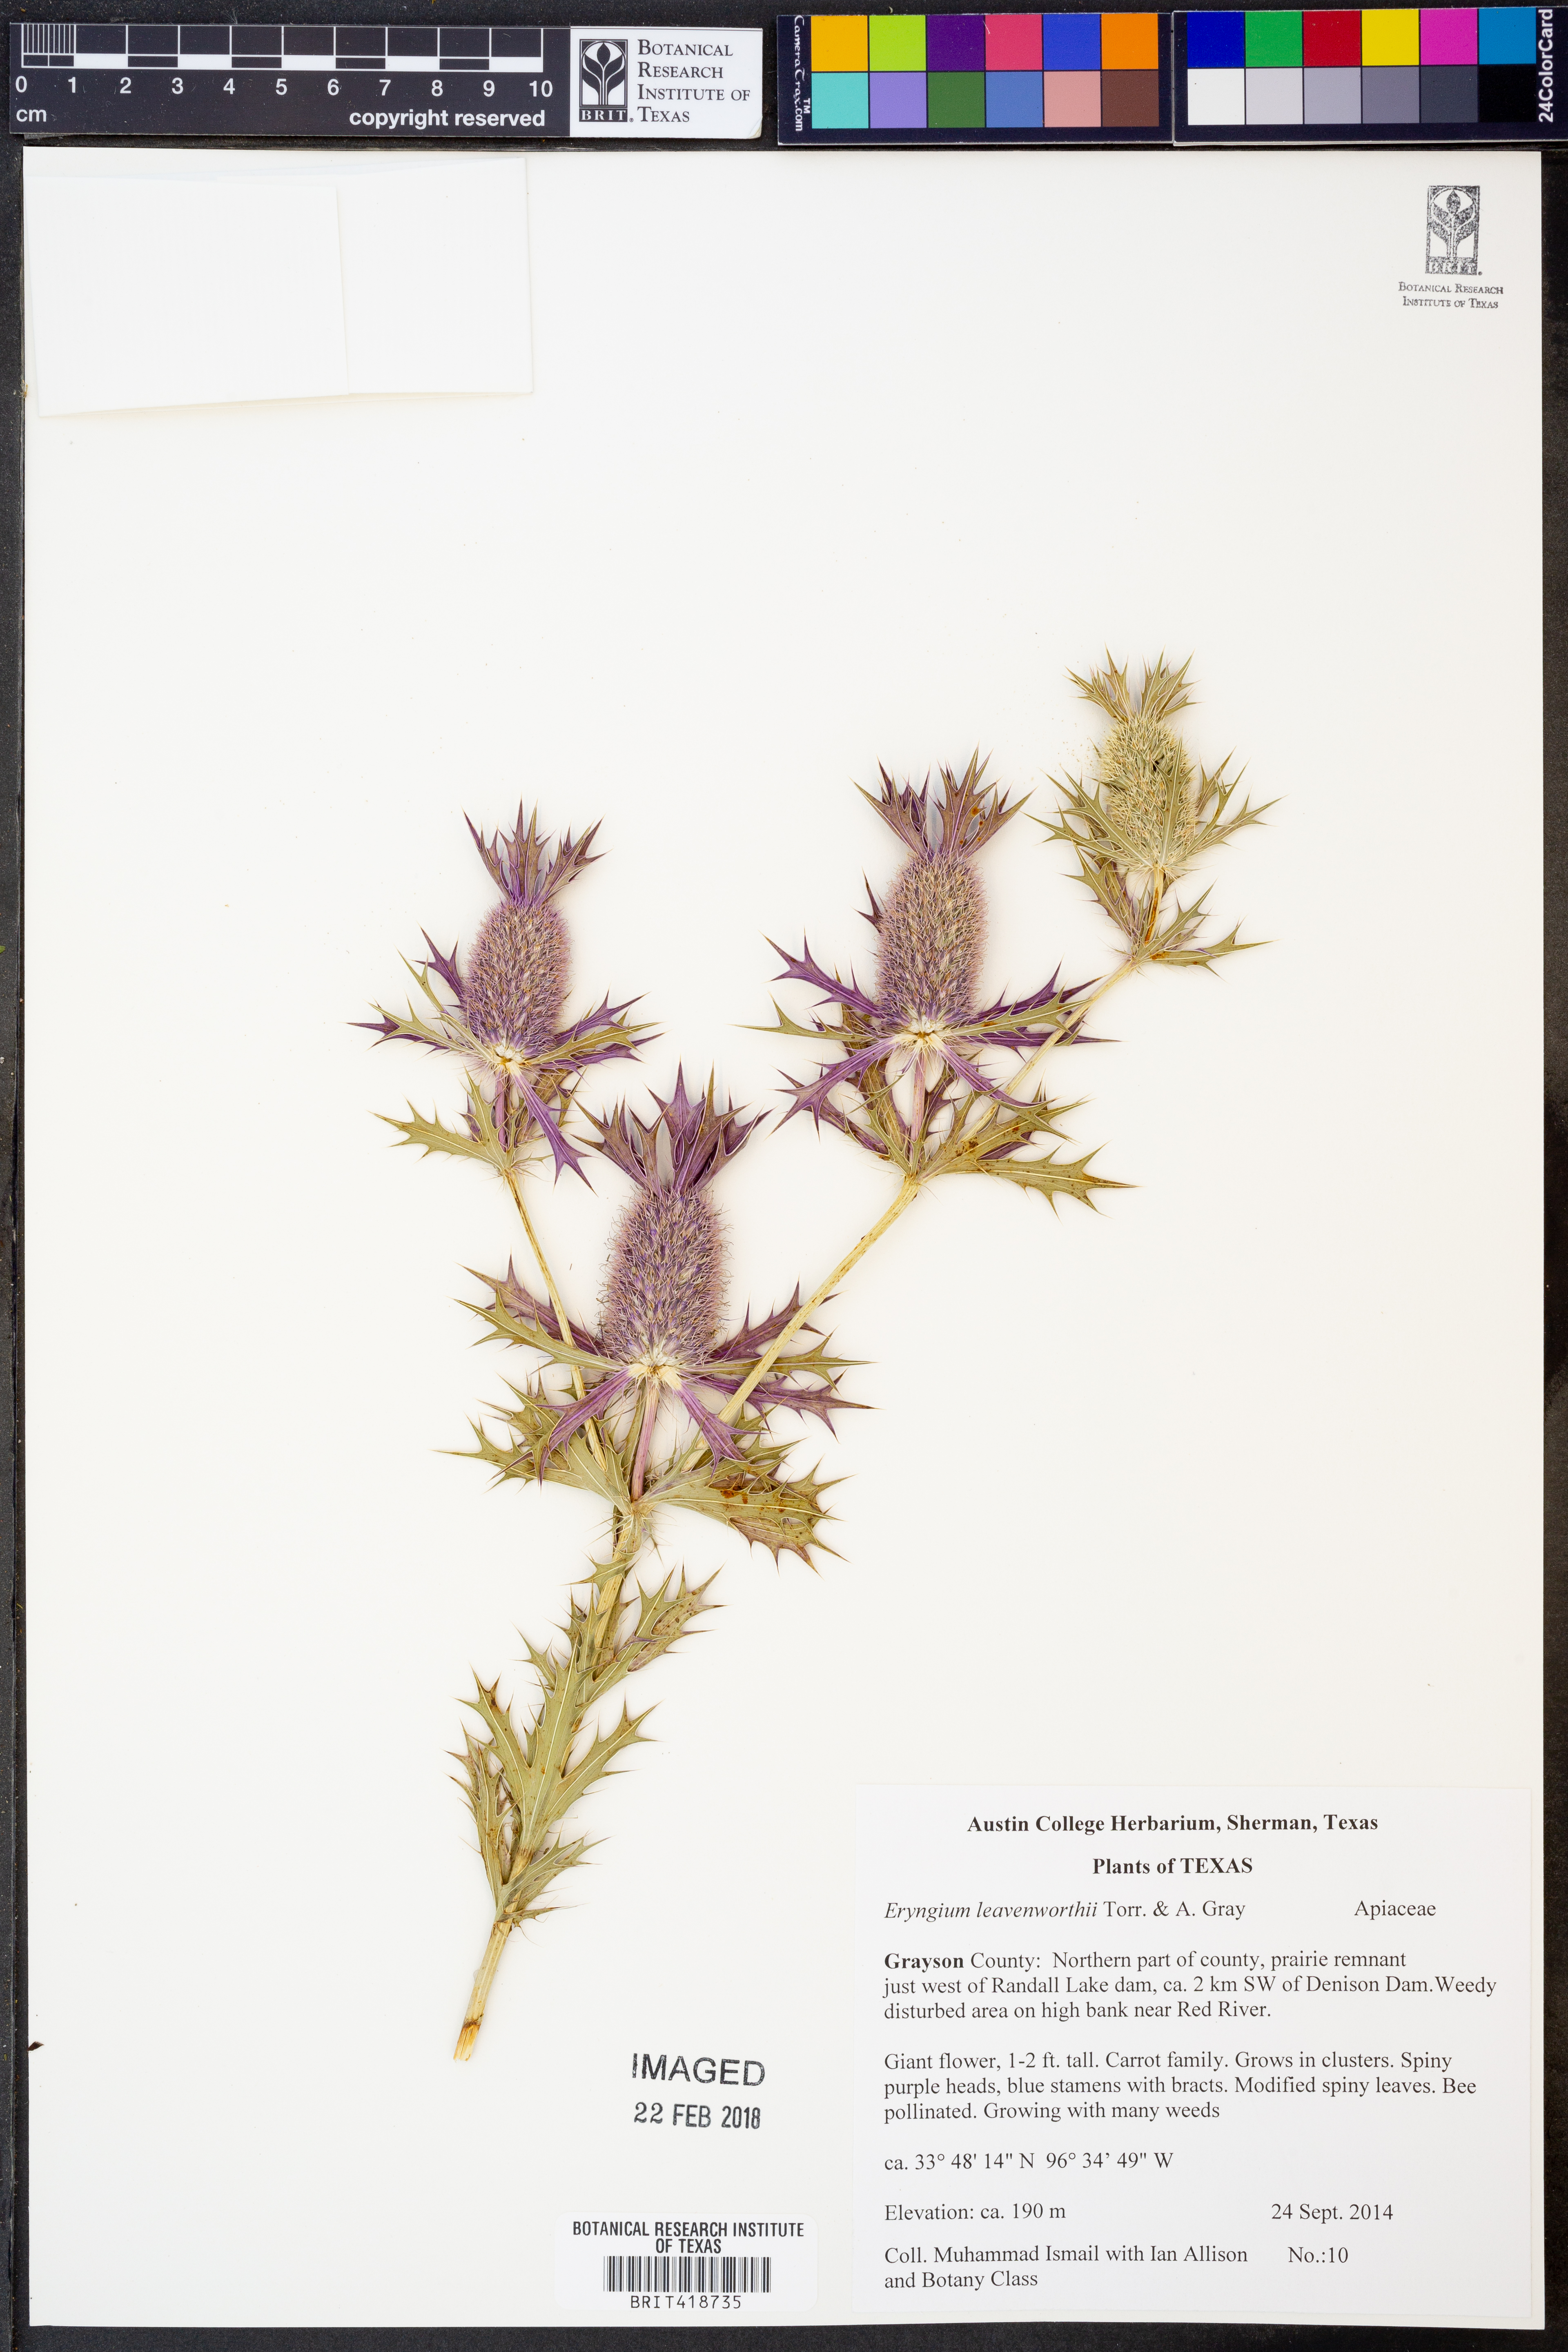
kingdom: Plantae
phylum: Tracheophyta
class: Magnoliopsida
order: Apiales
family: Apiaceae
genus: Eryngium
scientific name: Eryngium leavenworthii
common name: Leavenworth's eryngo
